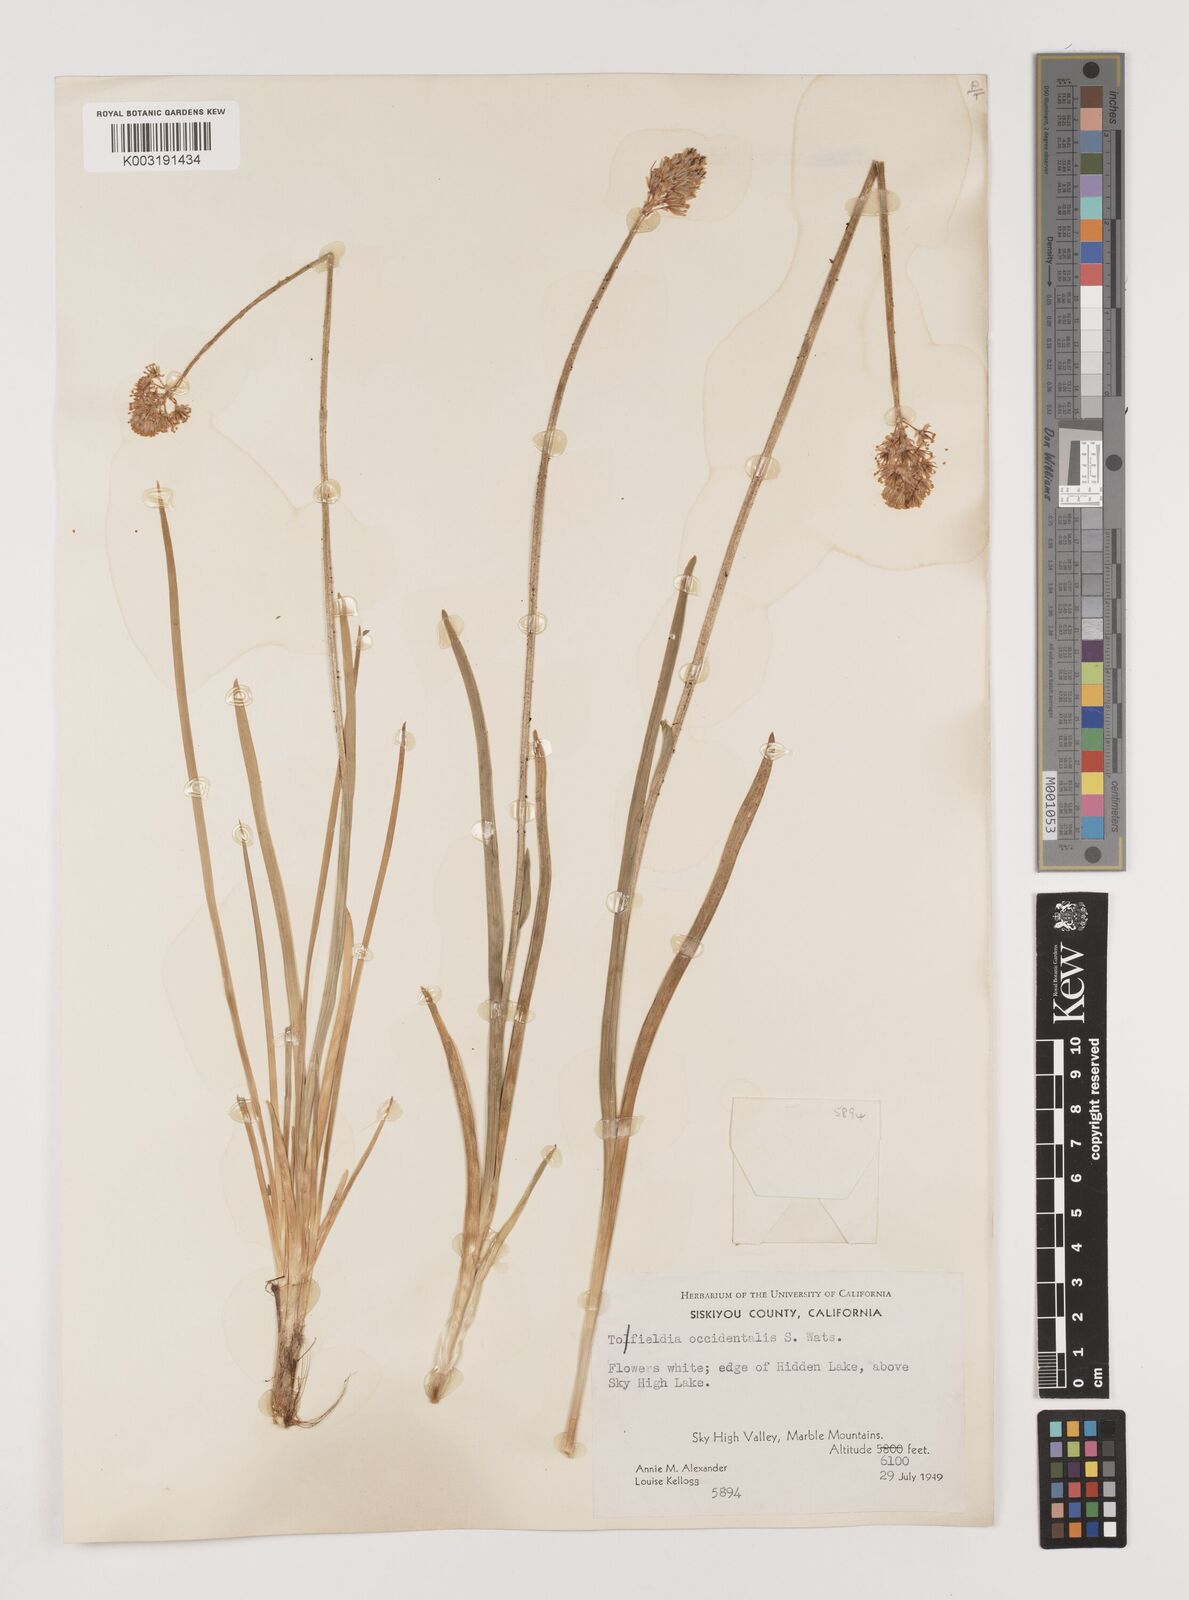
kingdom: Plantae
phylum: Tracheophyta
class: Liliopsida
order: Alismatales
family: Tofieldiaceae
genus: Triantha
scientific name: Triantha occidentalis
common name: Western false asphodel
